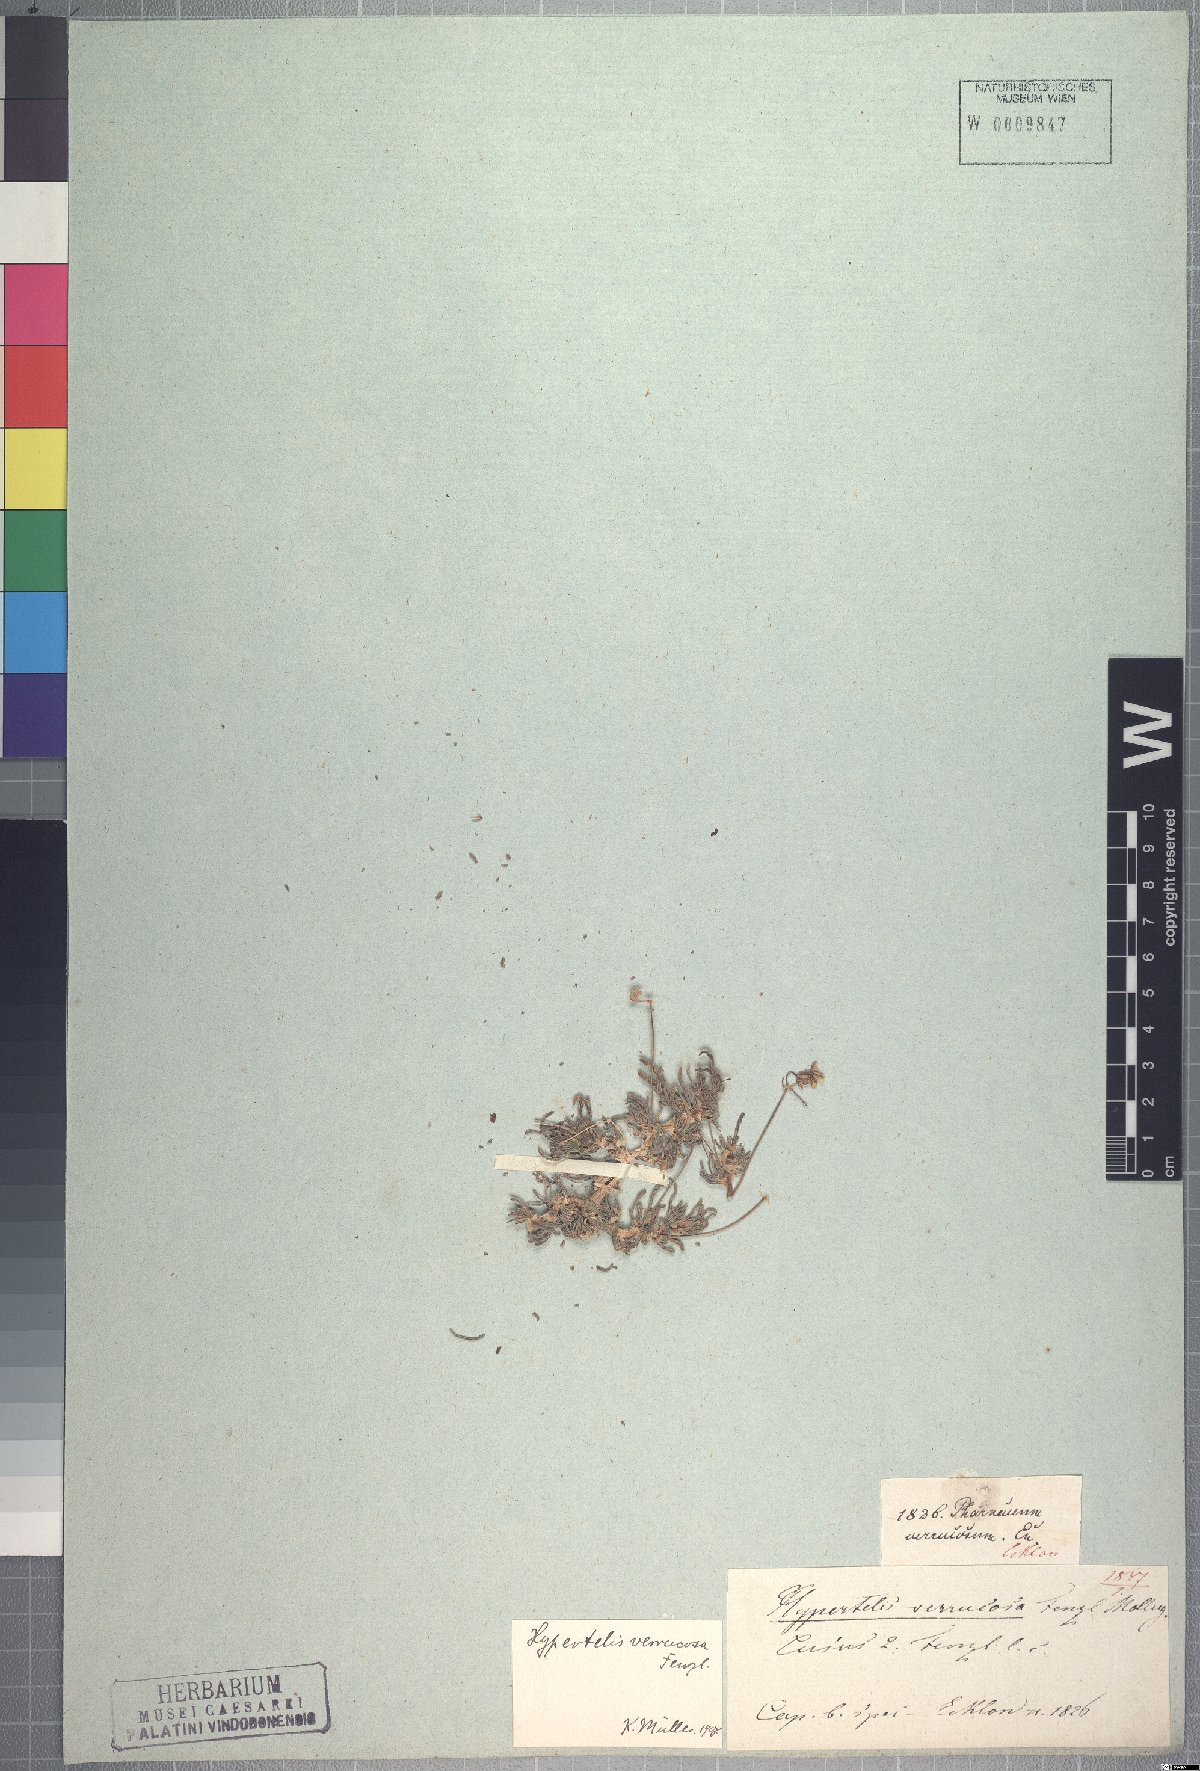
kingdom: Plantae
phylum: Tracheophyta
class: Magnoliopsida
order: Caryophyllales
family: Kewaceae
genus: Kewa
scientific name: Kewa salsoloides
